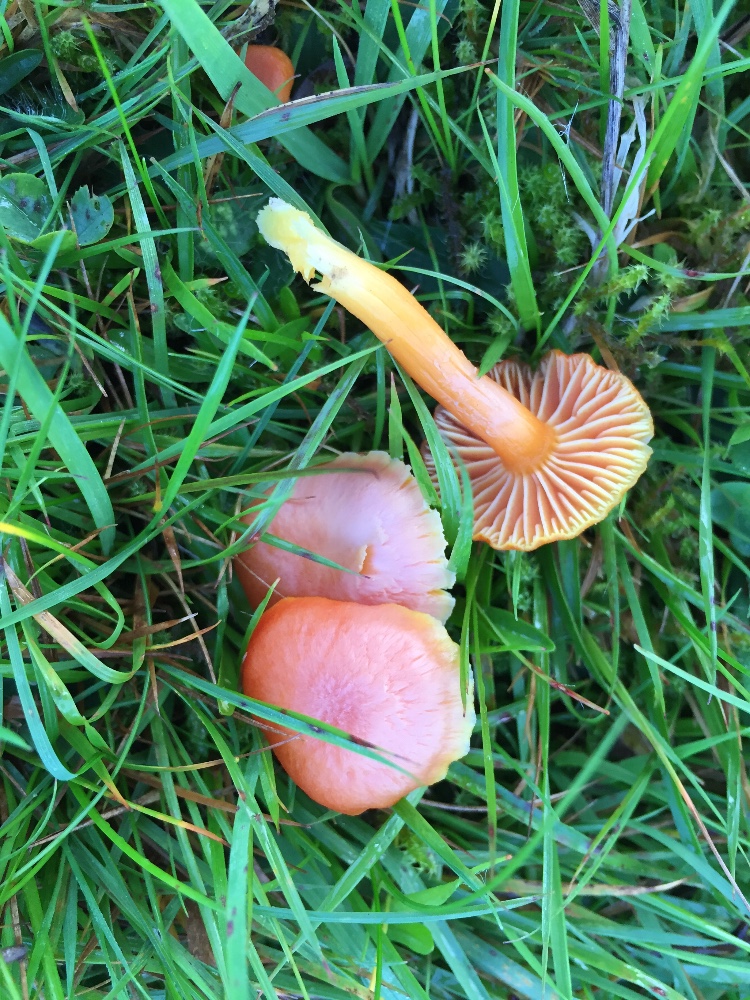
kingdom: Fungi
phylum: Basidiomycota
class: Agaricomycetes
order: Agaricales
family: Hygrophoraceae
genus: Hygrocybe
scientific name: Hygrocybe reidii
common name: honning-vokshat
